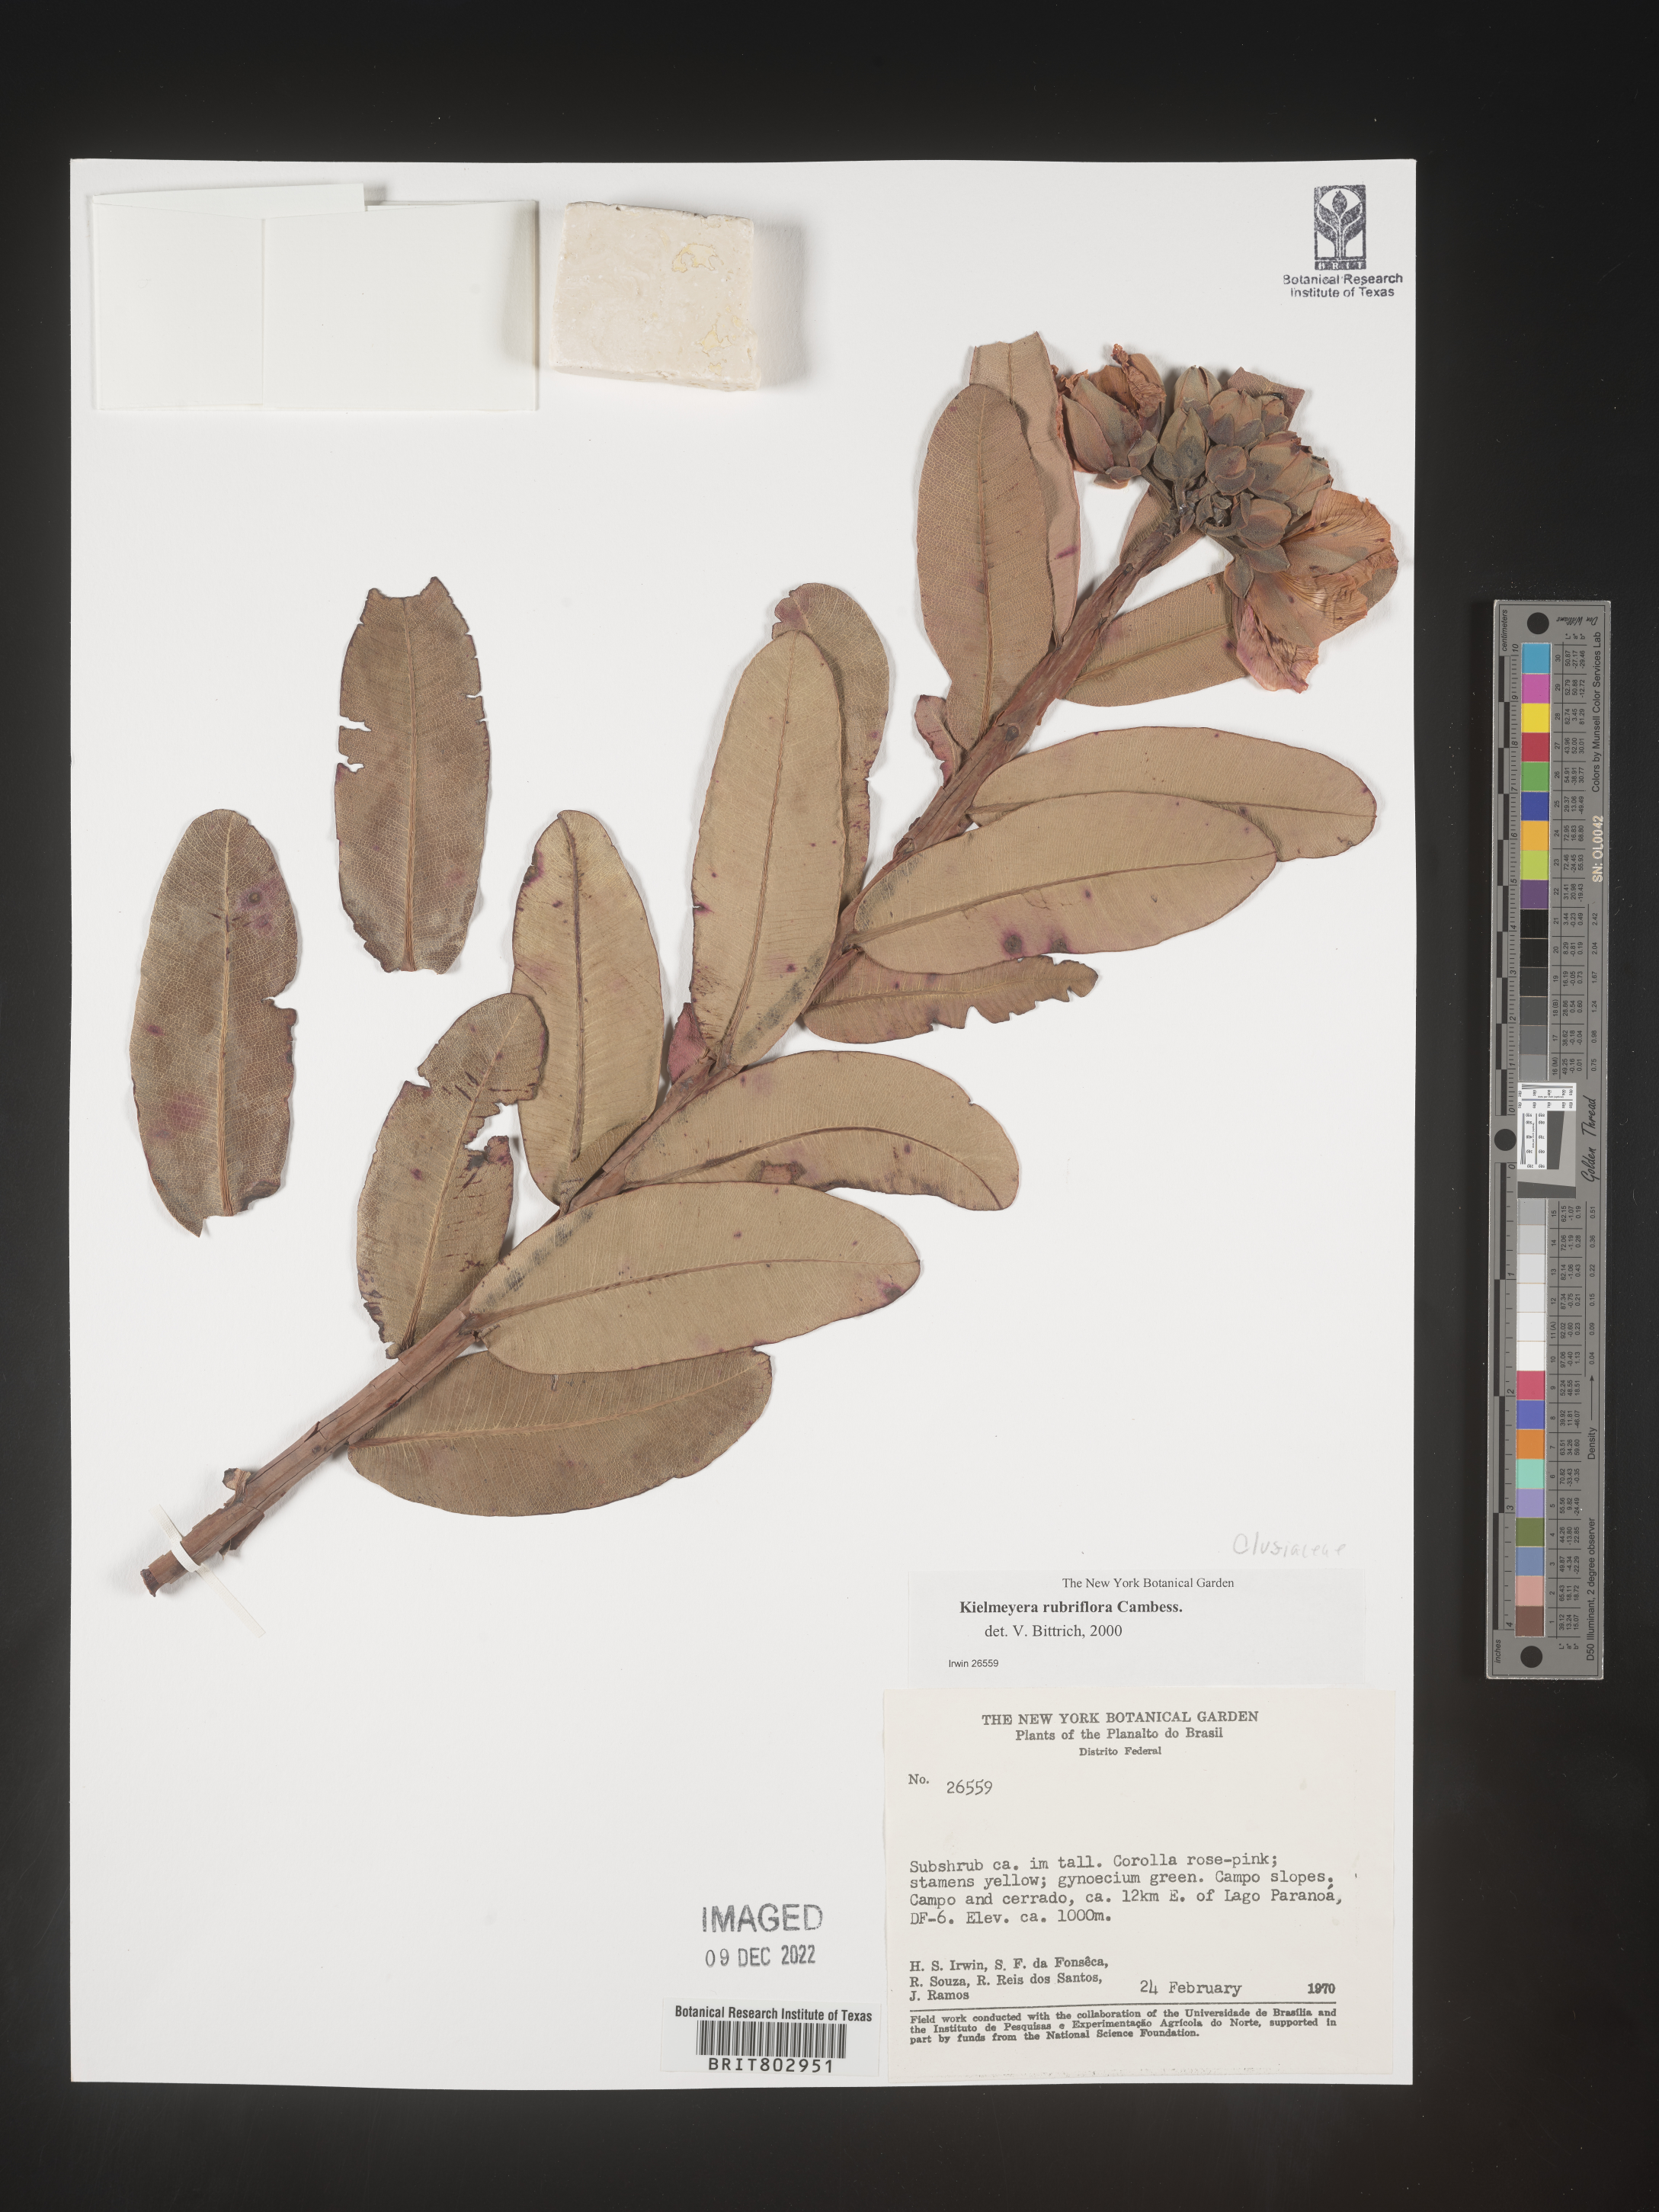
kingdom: Plantae
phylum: Tracheophyta
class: Magnoliopsida
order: Malpighiales
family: Calophyllaceae
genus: Kielmeyera
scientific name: Kielmeyera
